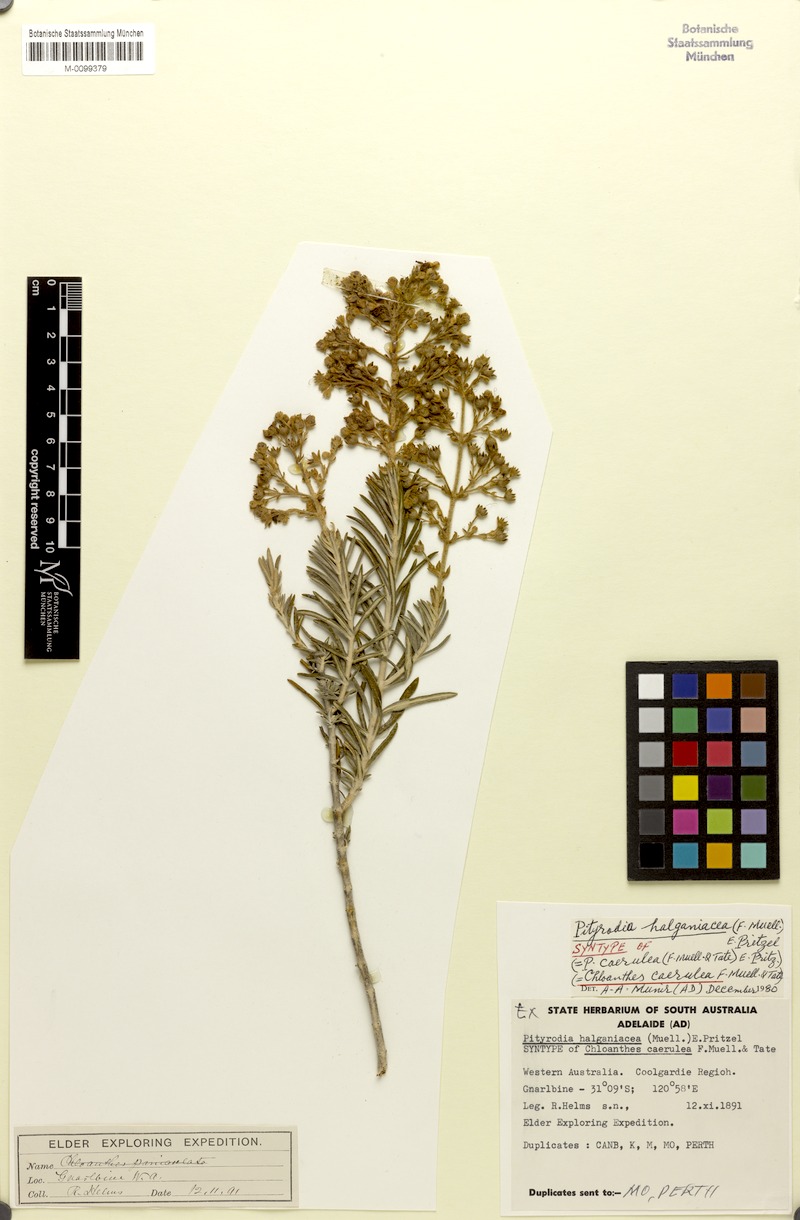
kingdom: Plantae
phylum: Tracheophyta
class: Magnoliopsida
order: Lamiales
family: Lamiaceae
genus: Brachysola
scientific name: Brachysola coerulea
